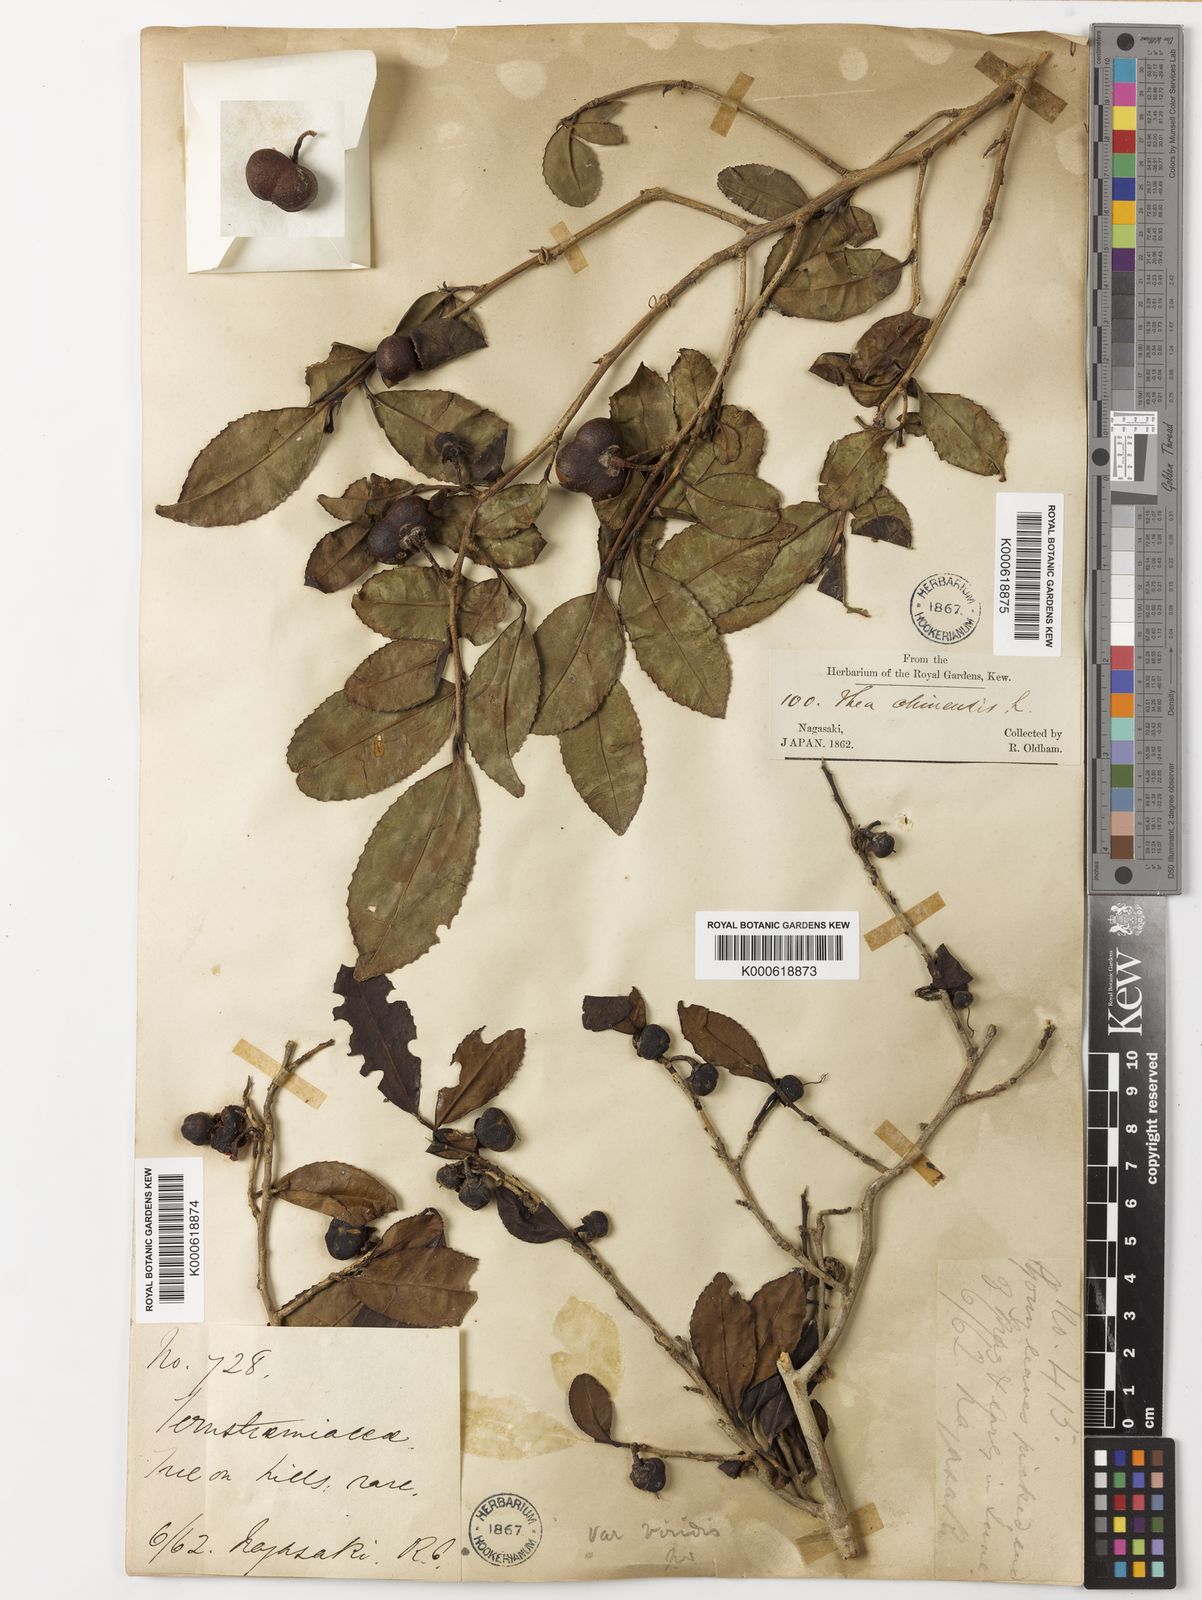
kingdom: Plantae
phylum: Tracheophyta
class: Magnoliopsida
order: Ericales
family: Theaceae
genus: Camellia
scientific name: Camellia sinensis
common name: Tea
